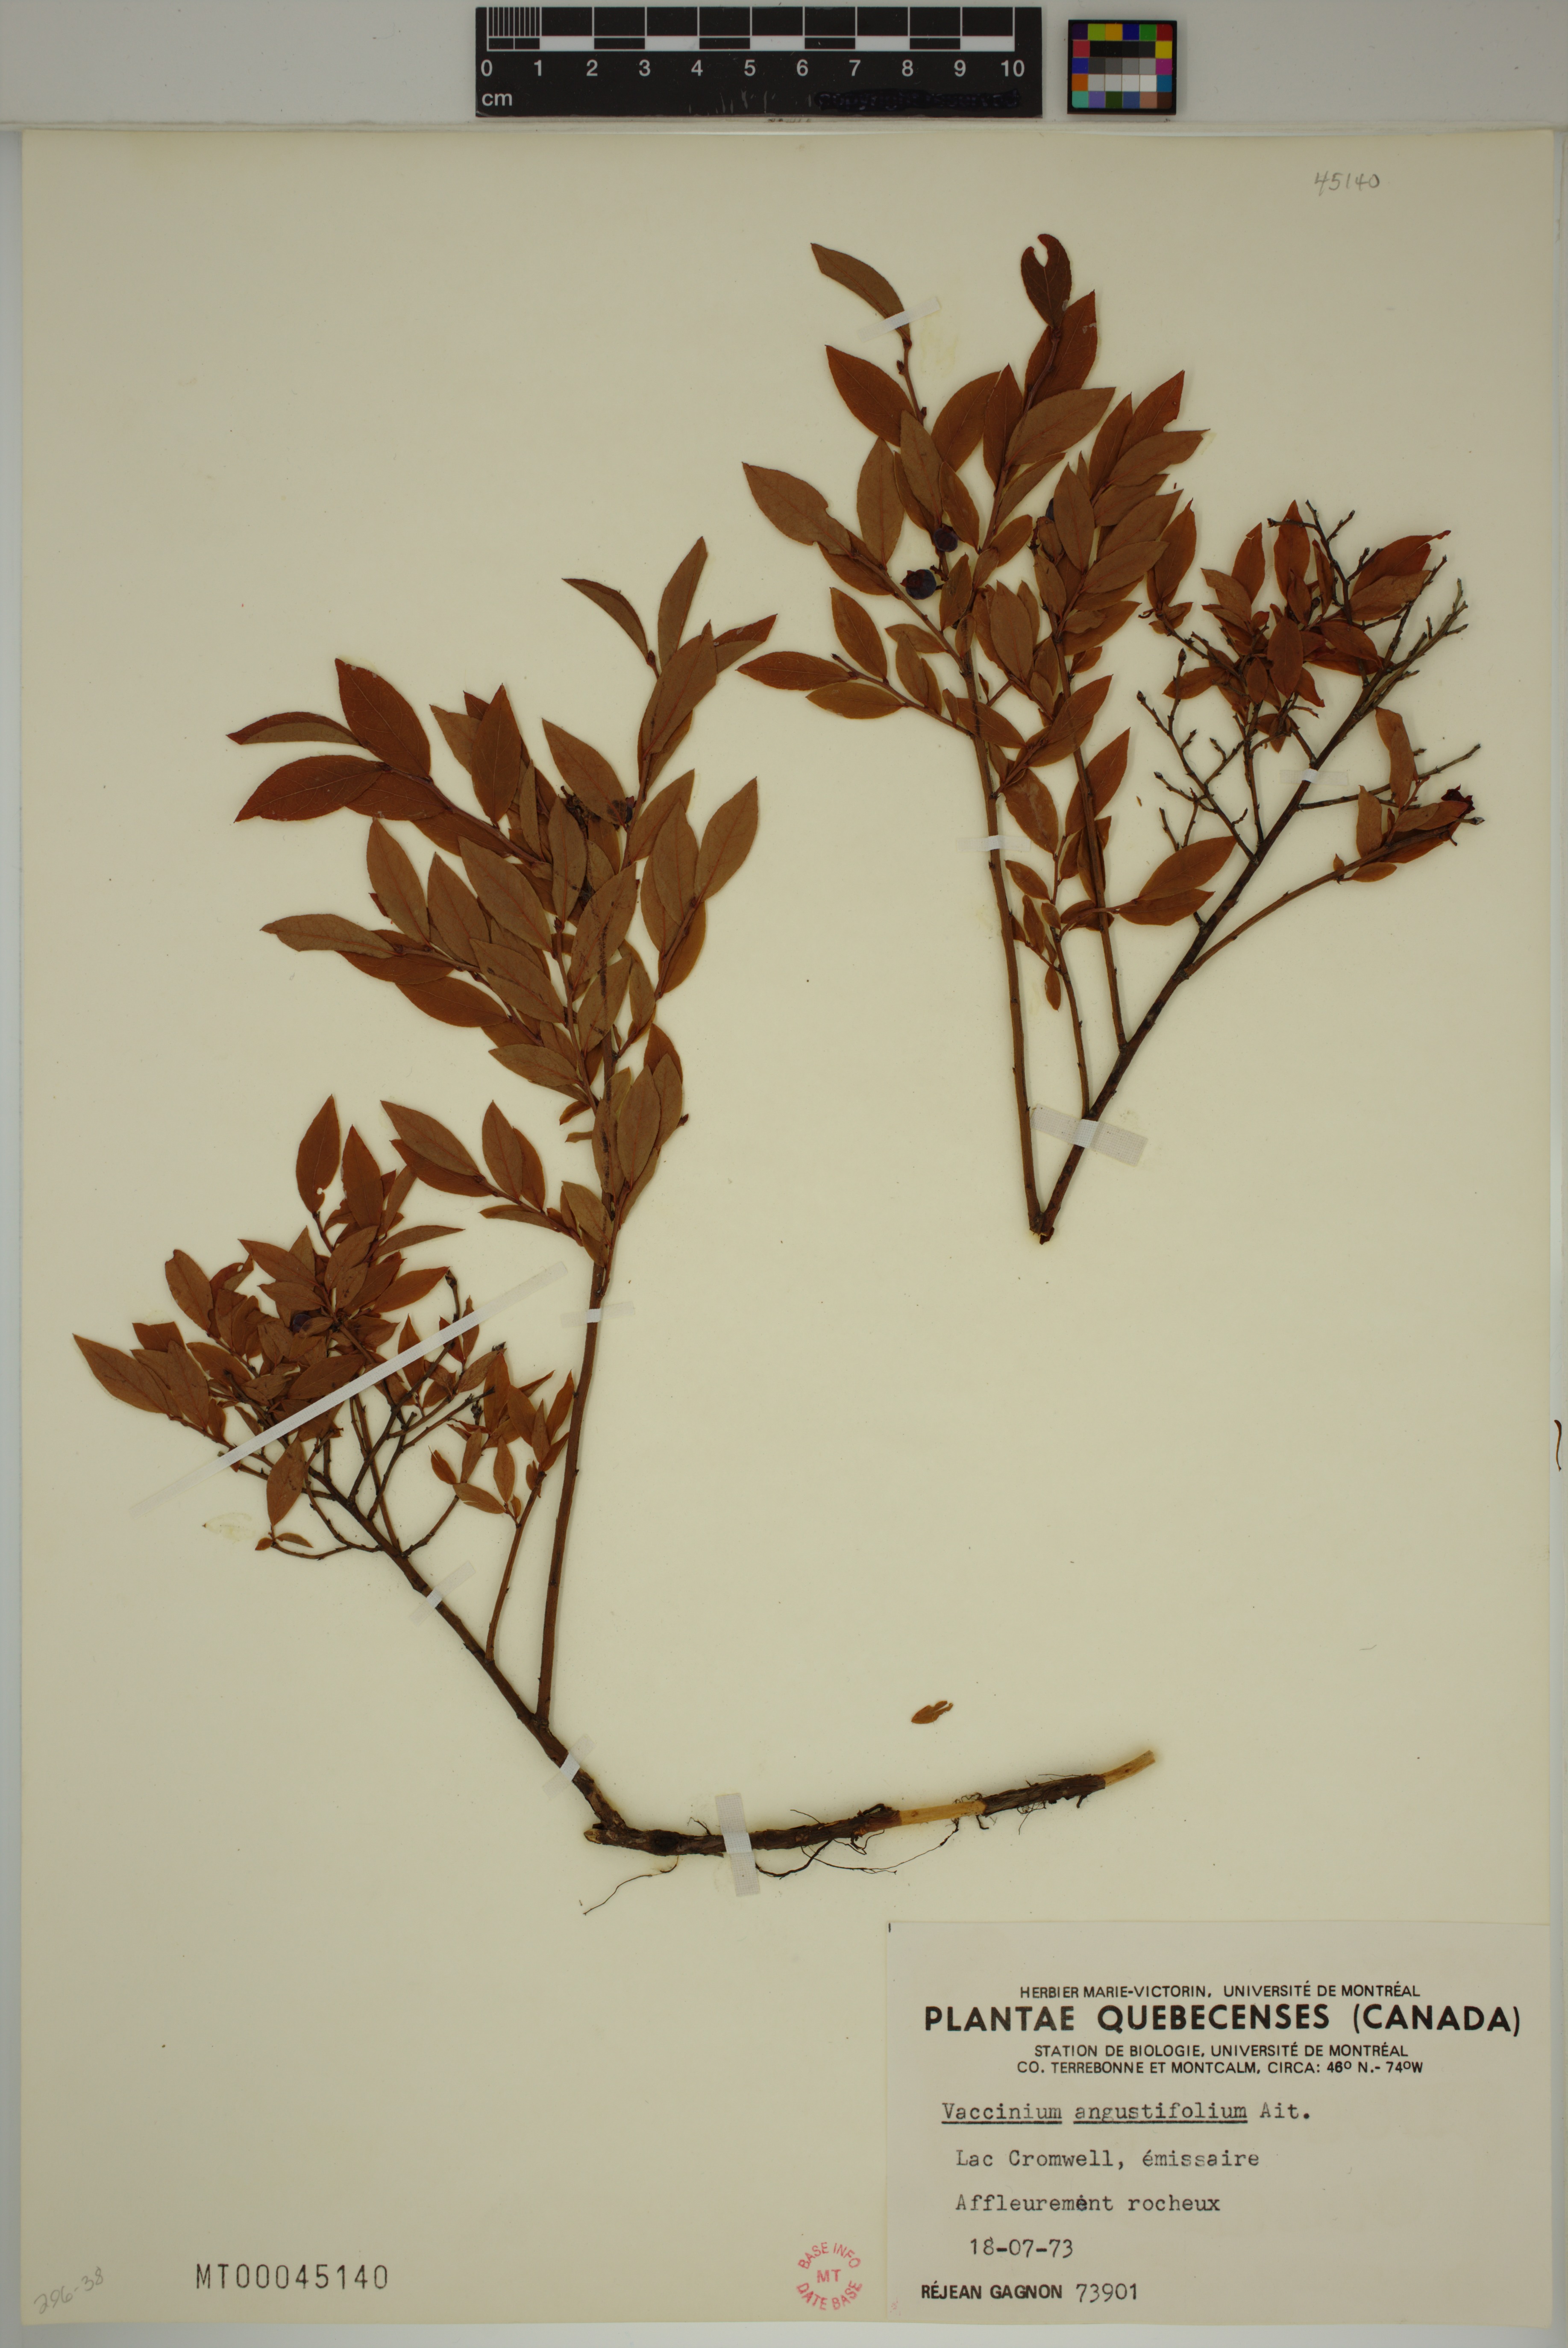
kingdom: Plantae
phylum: Tracheophyta
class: Magnoliopsida
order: Ericales
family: Ericaceae
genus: Vaccinium
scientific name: Vaccinium angustifolium
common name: Early lowbush blueberry
